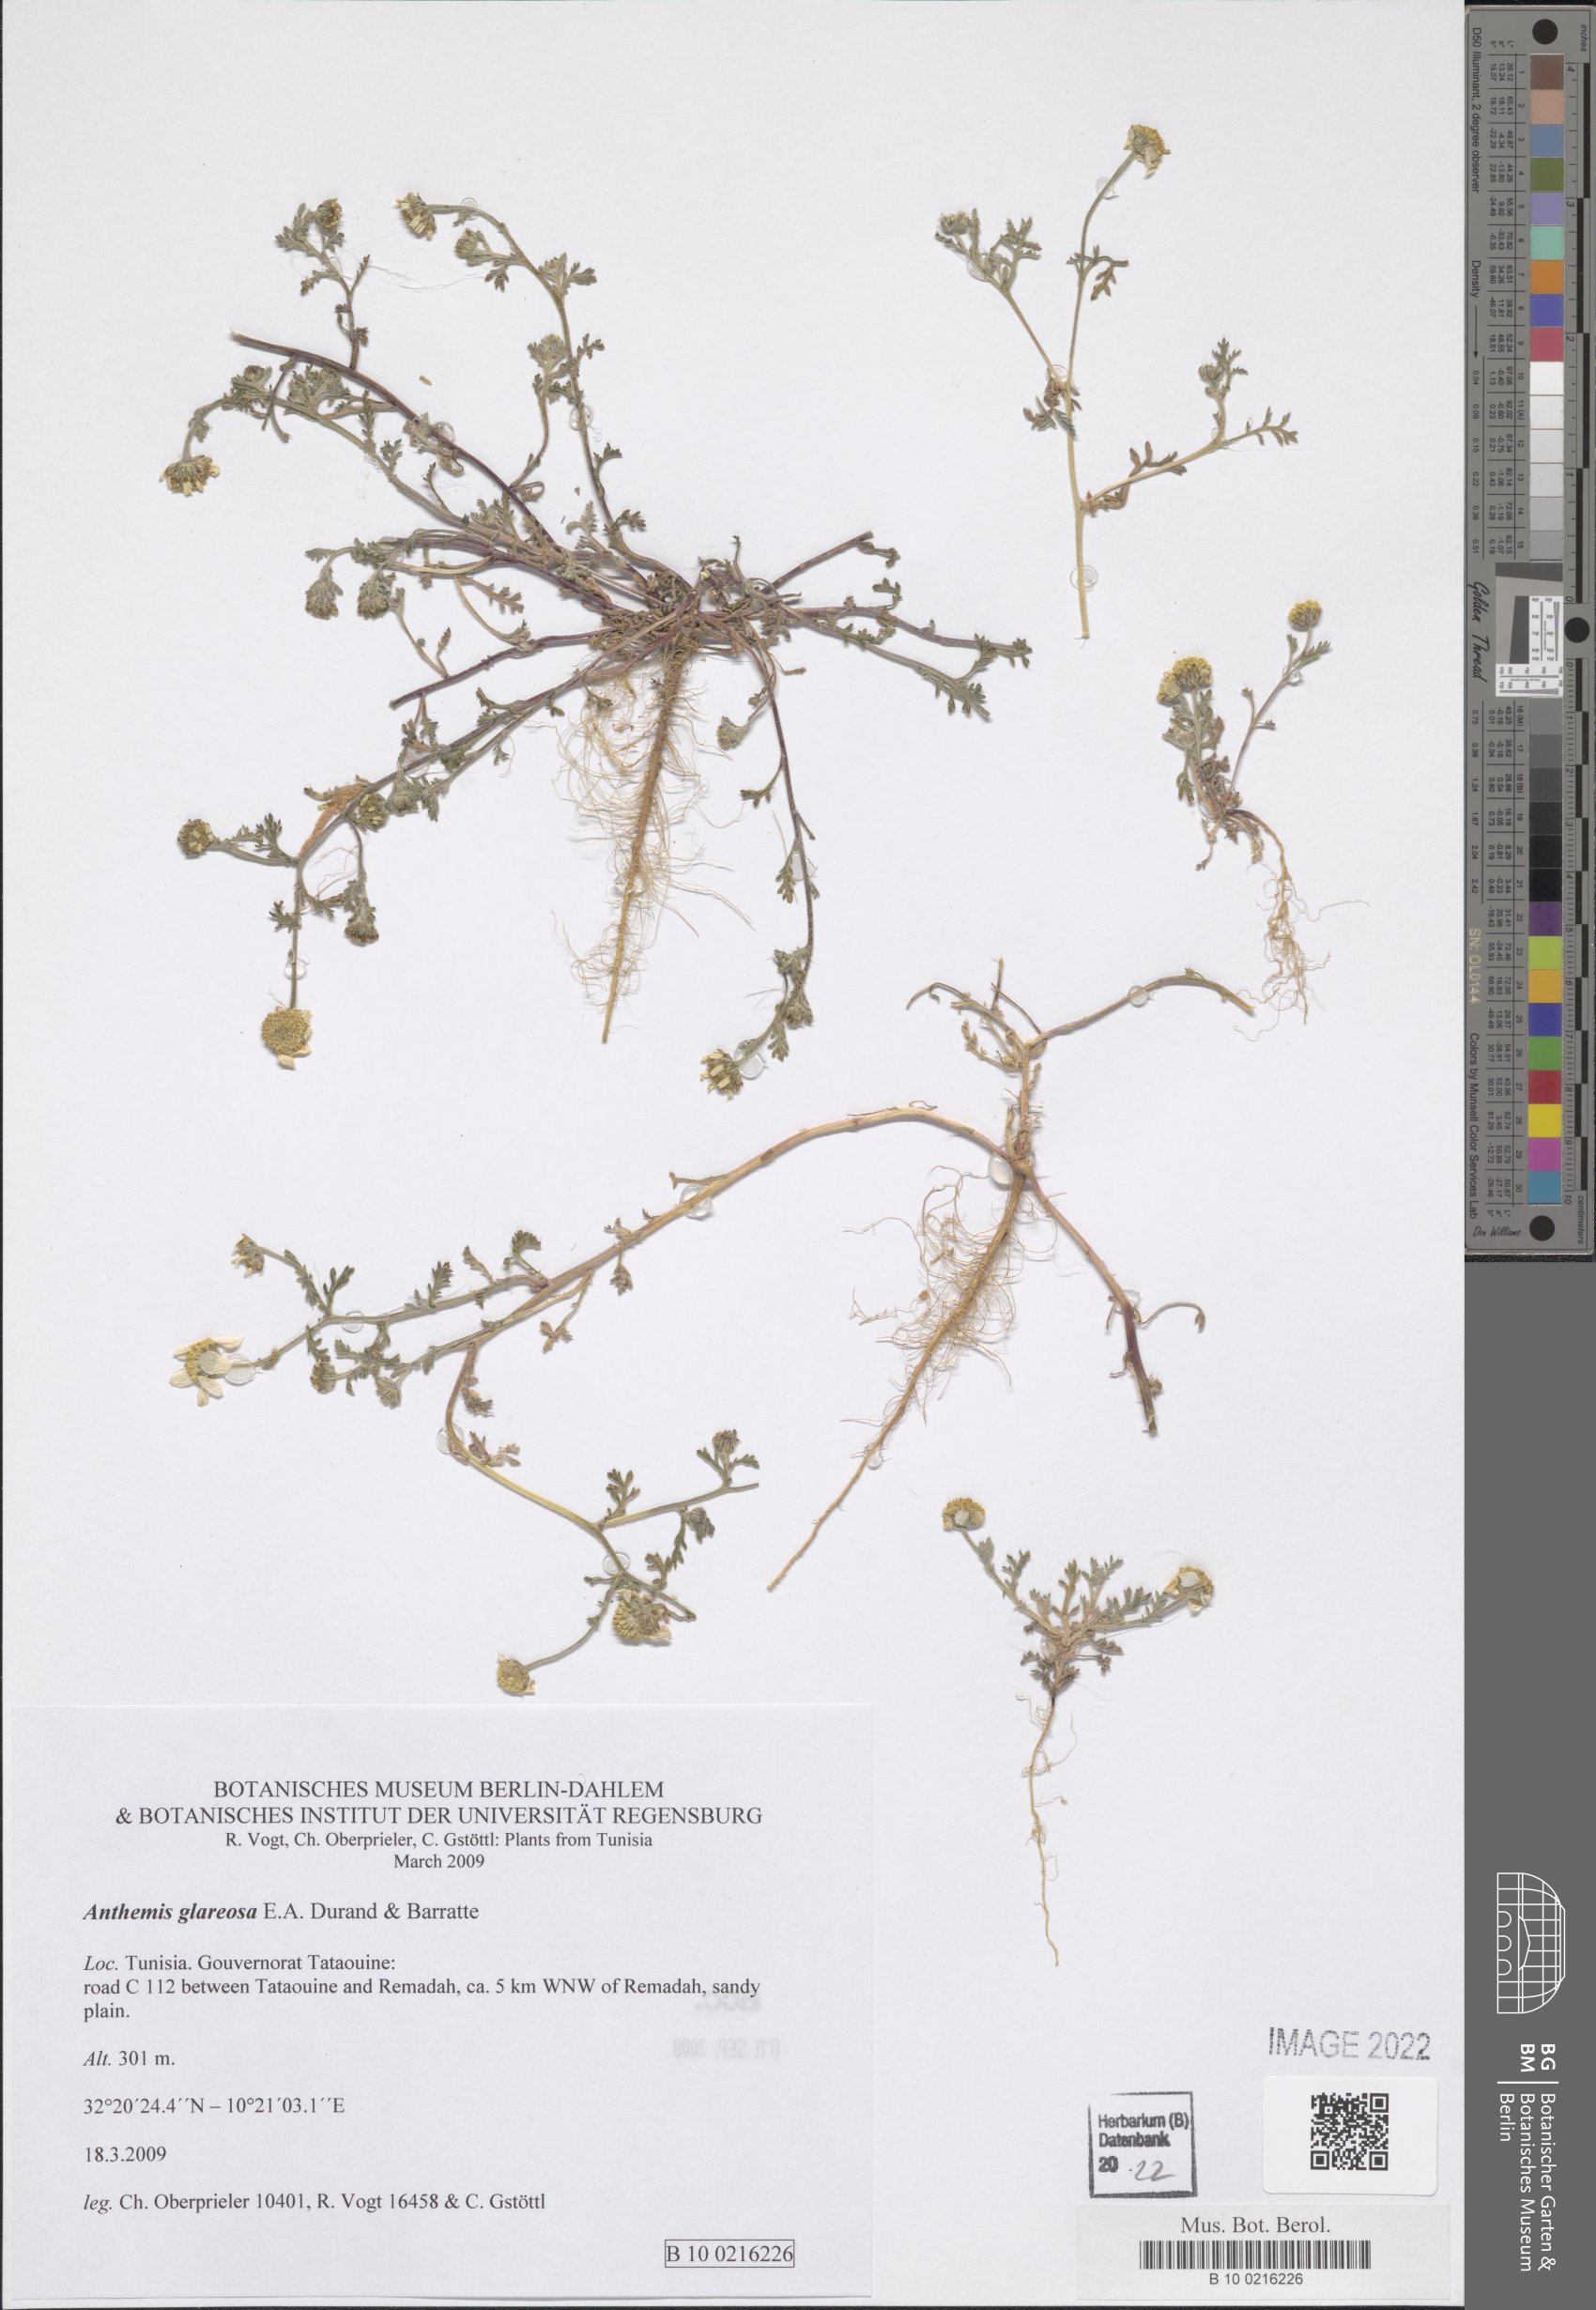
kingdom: Plantae
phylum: Tracheophyta
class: Magnoliopsida
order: Asterales
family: Asteraceae
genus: Anthemis
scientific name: Anthemis glareosa
